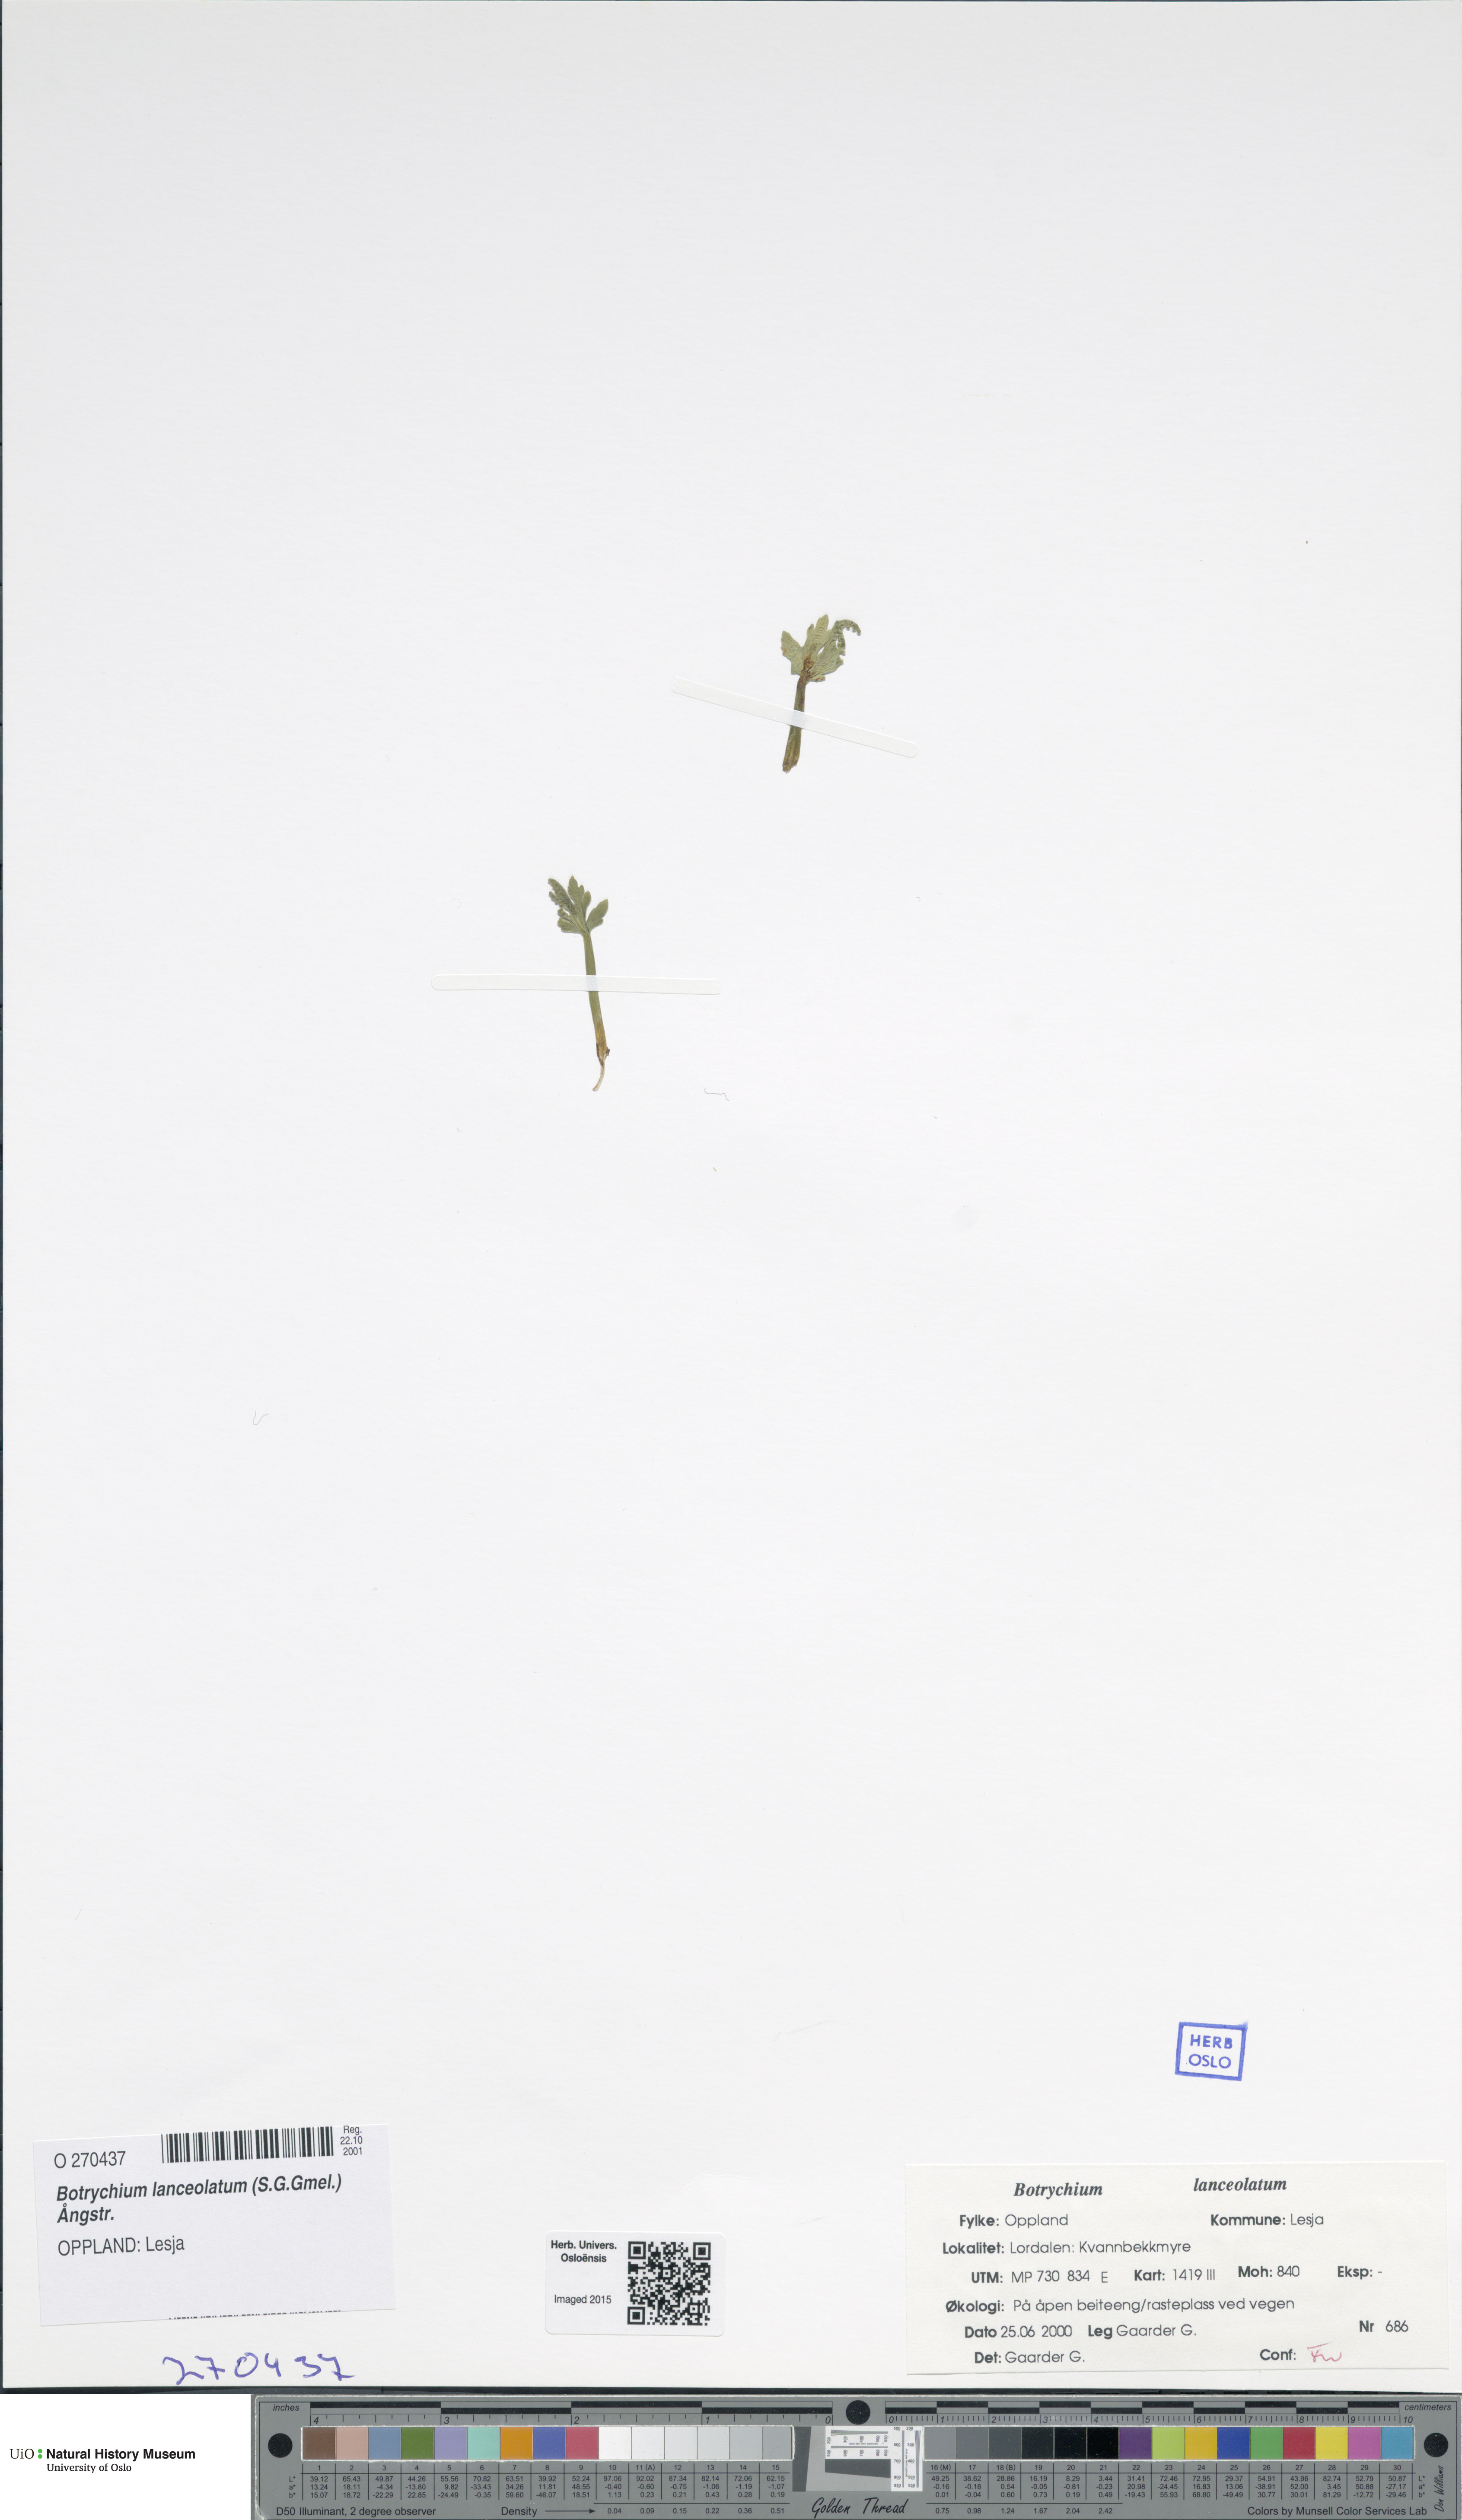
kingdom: Plantae
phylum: Tracheophyta
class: Polypodiopsida
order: Ophioglossales
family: Ophioglossaceae
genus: Botrychium
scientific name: Botrychium lanceolatum
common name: Lance-leaved moonwort
